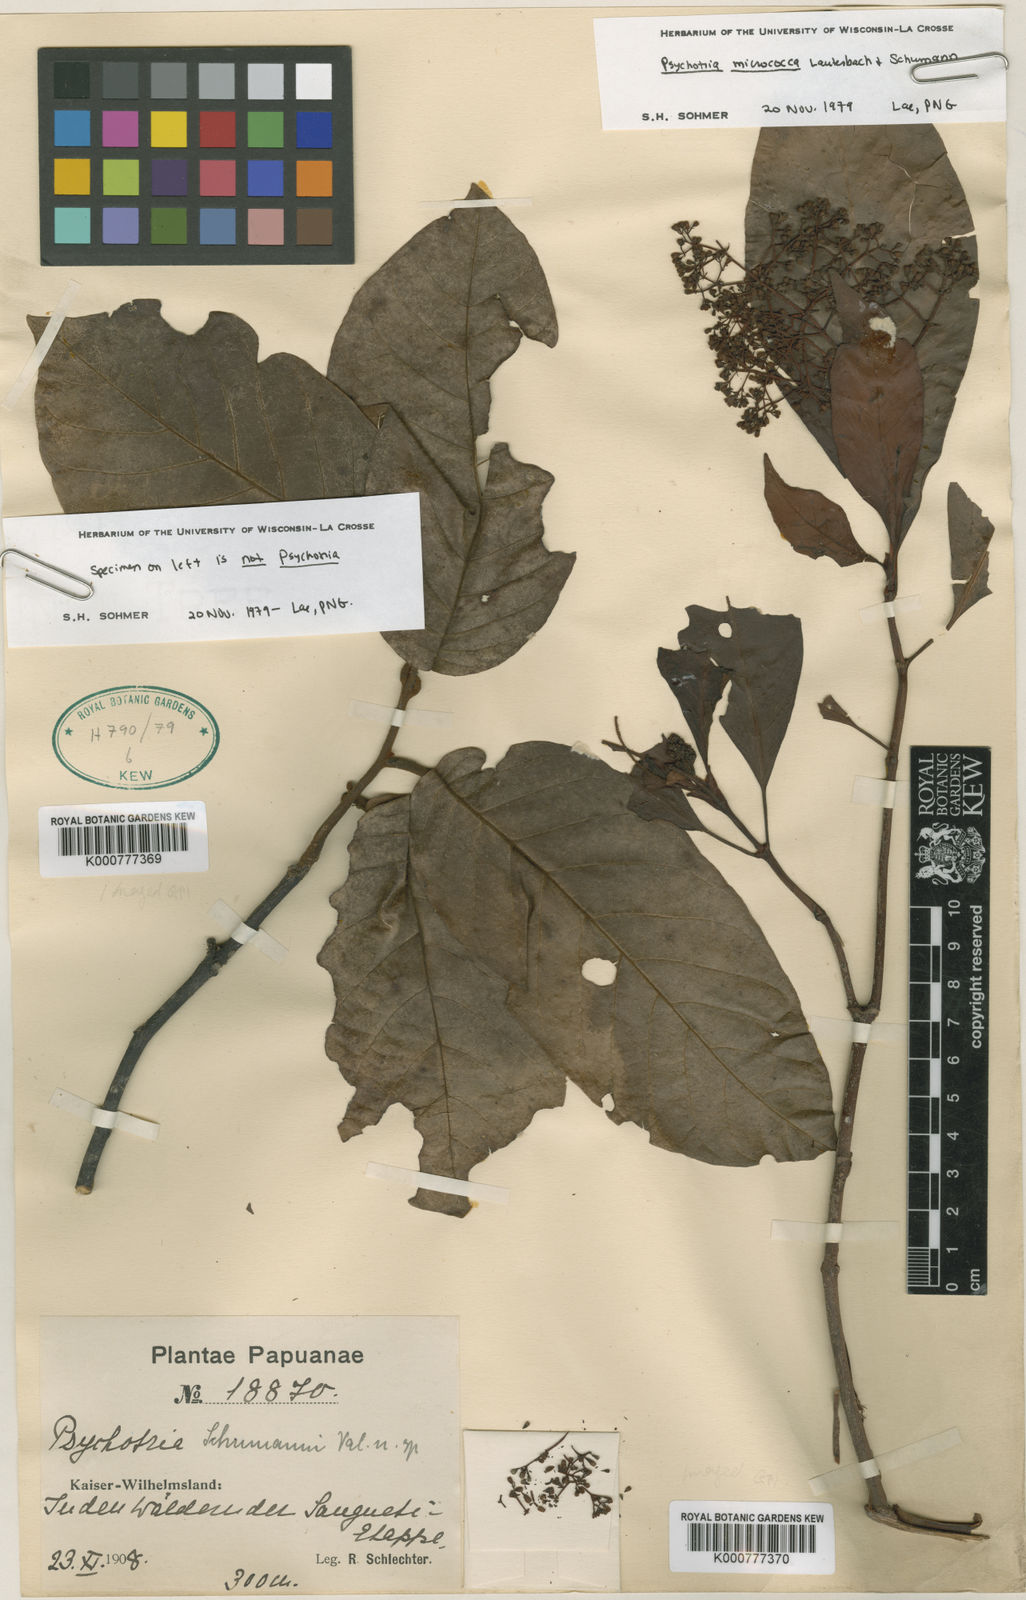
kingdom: Plantae
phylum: Tracheophyta
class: Magnoliopsida
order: Gentianales
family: Rubiaceae
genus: Psychotria
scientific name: Psychotria micrococca
